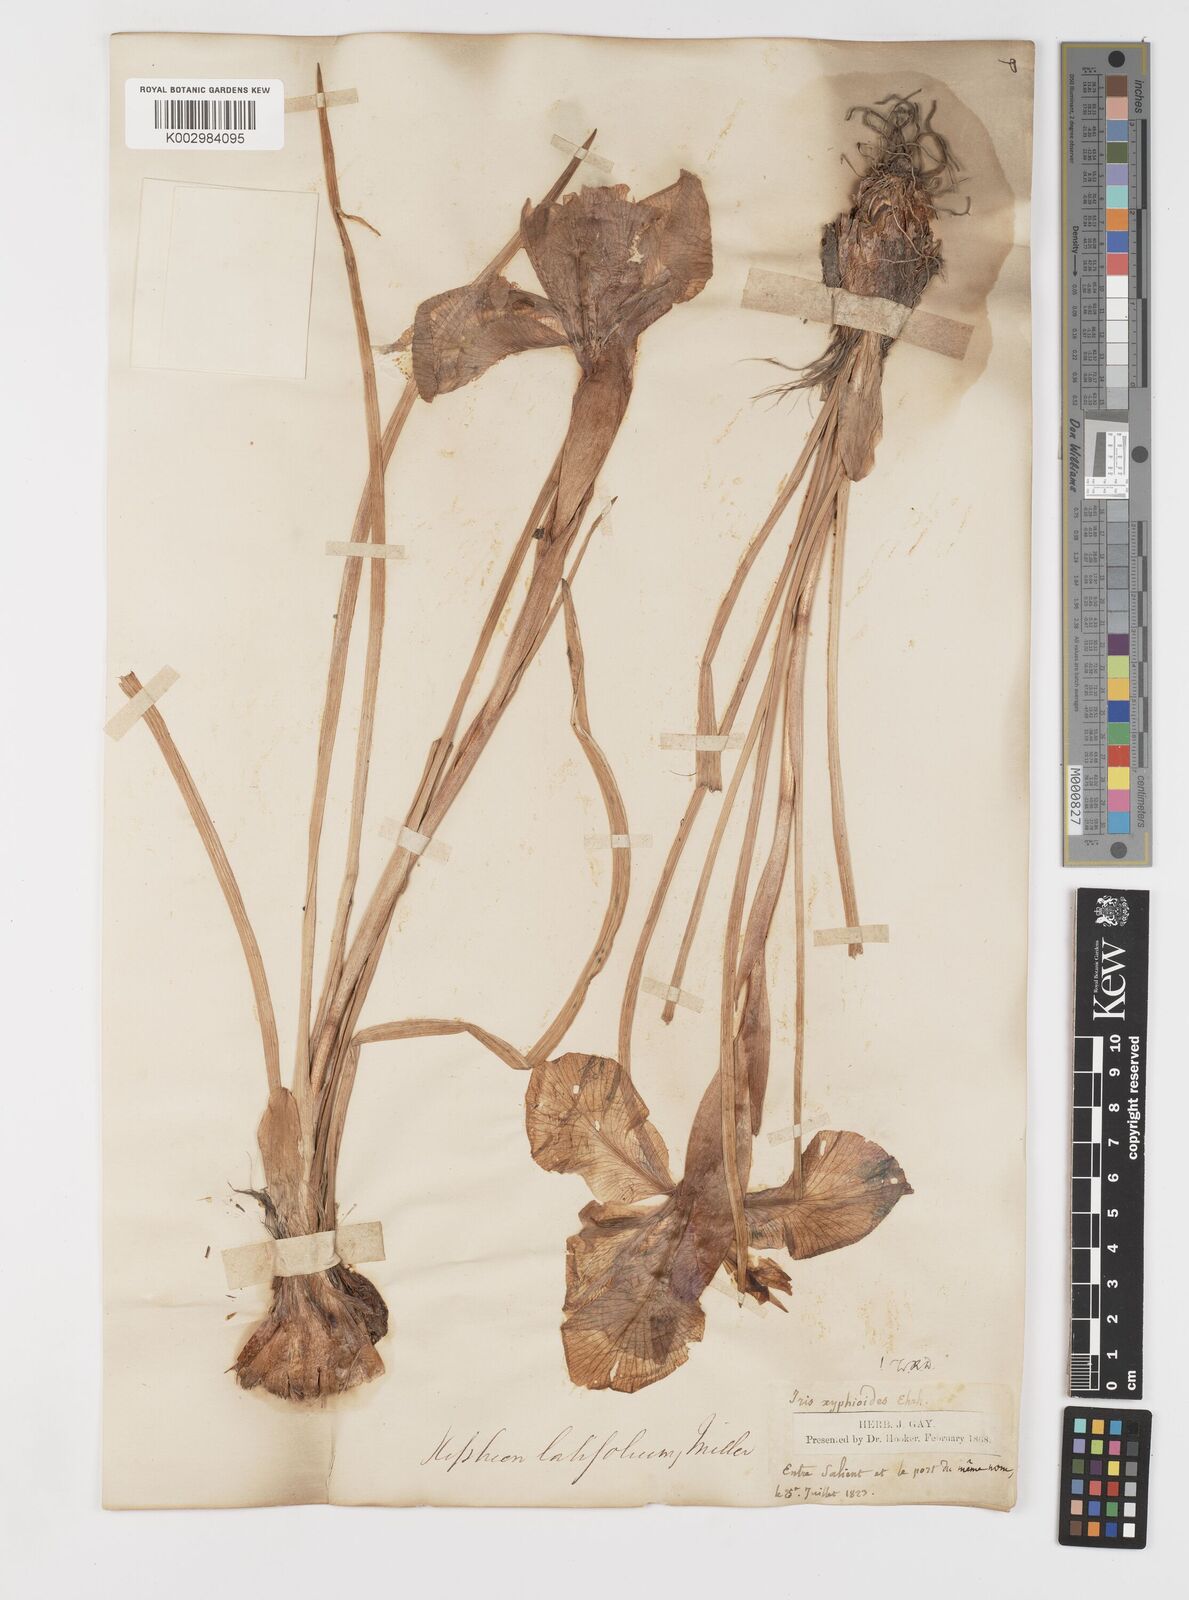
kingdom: Plantae
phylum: Tracheophyta
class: Liliopsida
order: Asparagales
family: Iridaceae
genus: Iris
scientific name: Iris jacquinii
